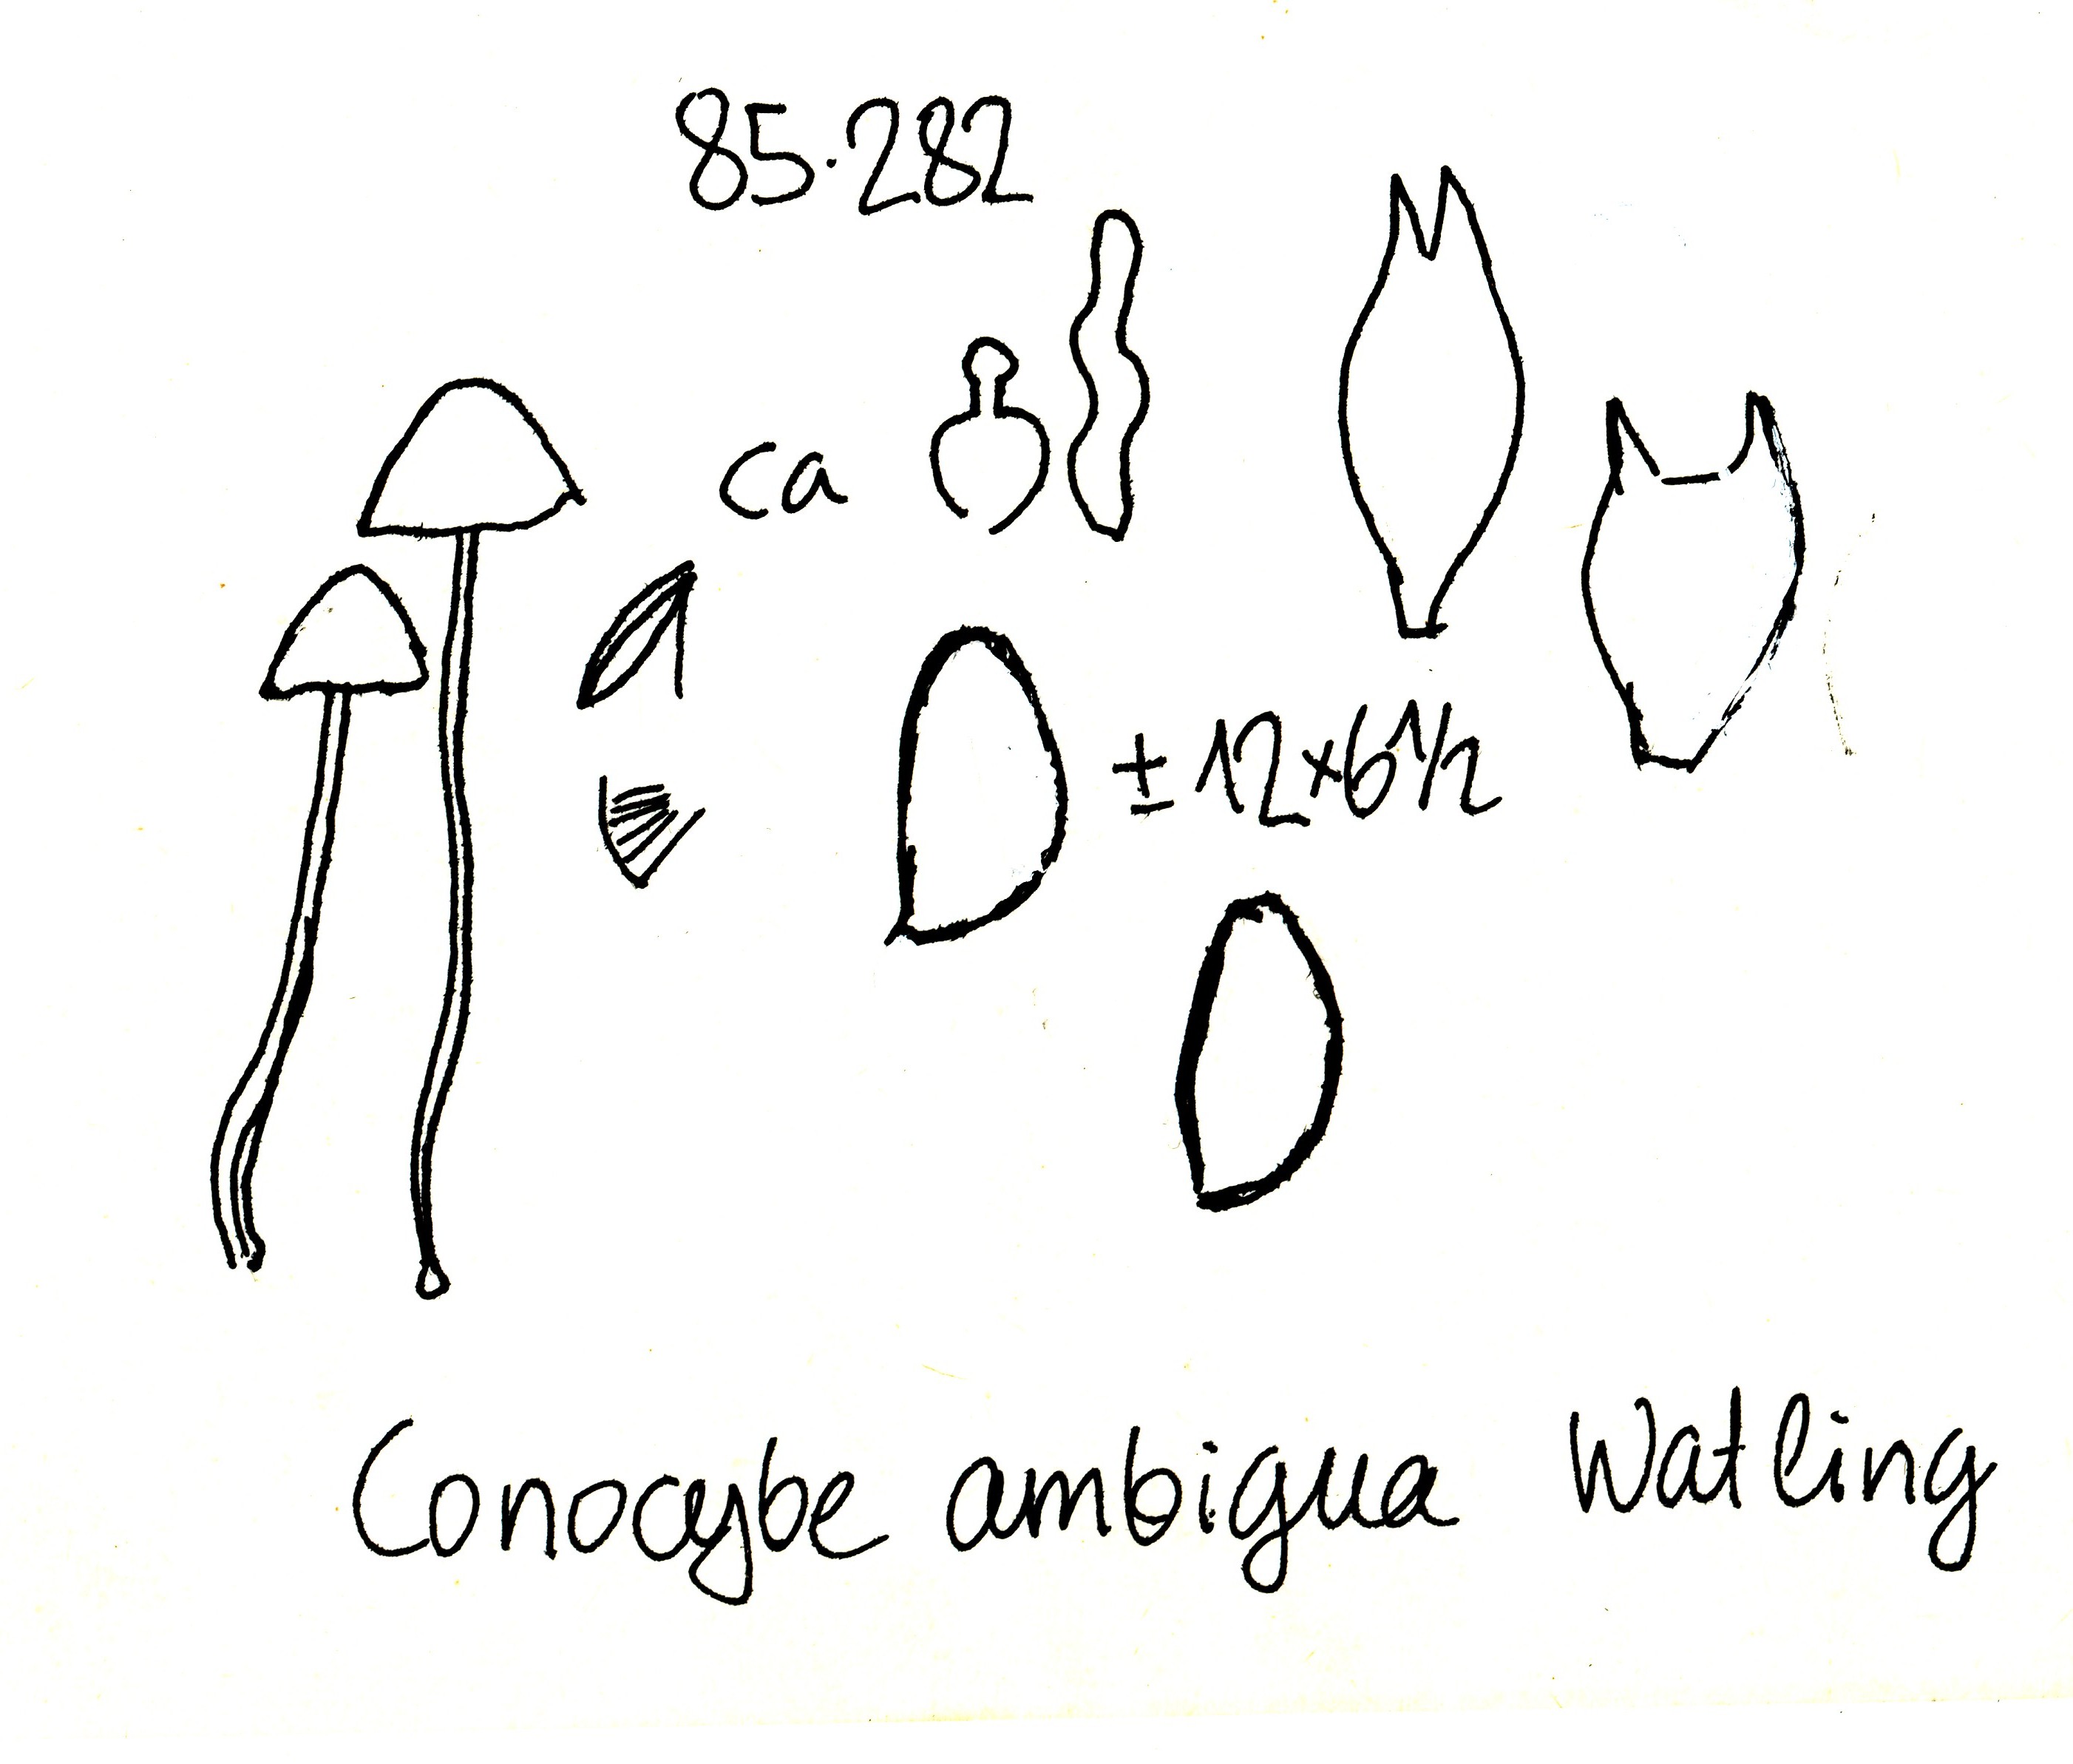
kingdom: Fungi
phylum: Basidiomycota
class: Agaricomycetes
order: Agaricales
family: Bolbitiaceae
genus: Conocybe
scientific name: Conocybe bispora
